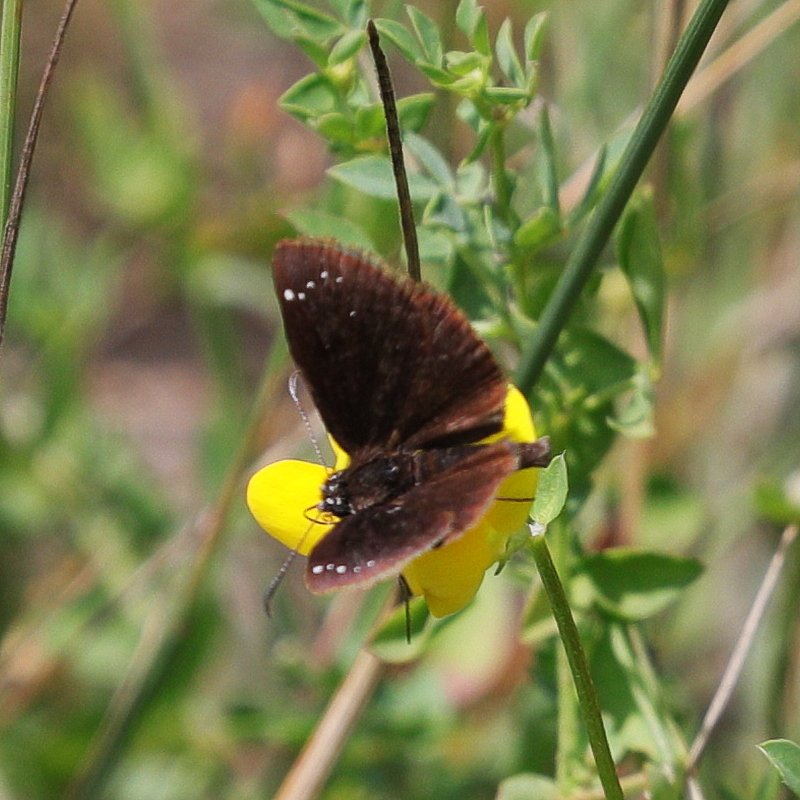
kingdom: Animalia
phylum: Arthropoda
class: Insecta
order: Lepidoptera
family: Hesperiidae
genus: Pholisora
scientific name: Pholisora catullus
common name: Common Sootywing
